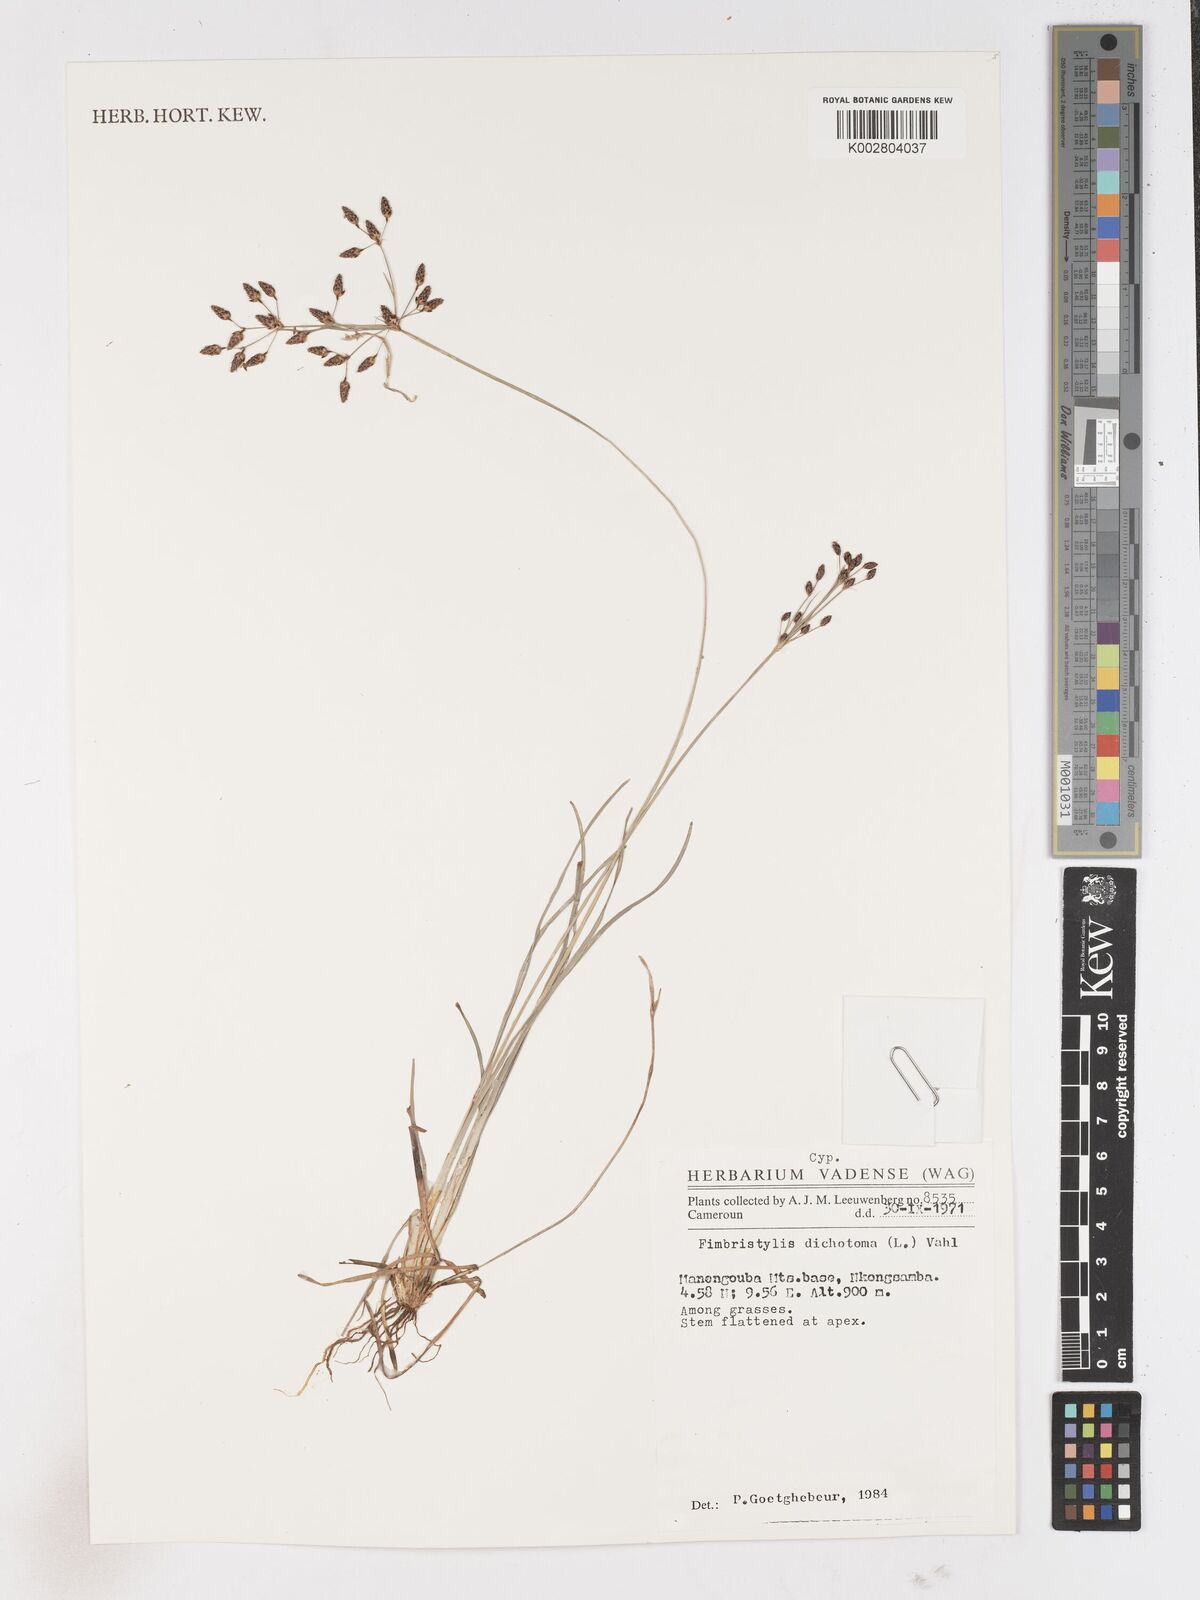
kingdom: Plantae
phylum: Tracheophyta
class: Liliopsida
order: Poales
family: Cyperaceae
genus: Fimbristylis
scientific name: Fimbristylis dichotoma
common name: Forked fimbry
